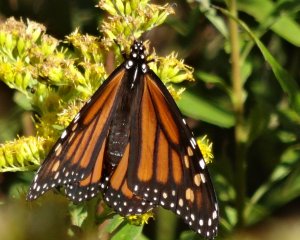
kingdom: Animalia
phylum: Arthropoda
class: Insecta
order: Lepidoptera
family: Nymphalidae
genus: Danaus
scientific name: Danaus plexippus
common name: Monarch
